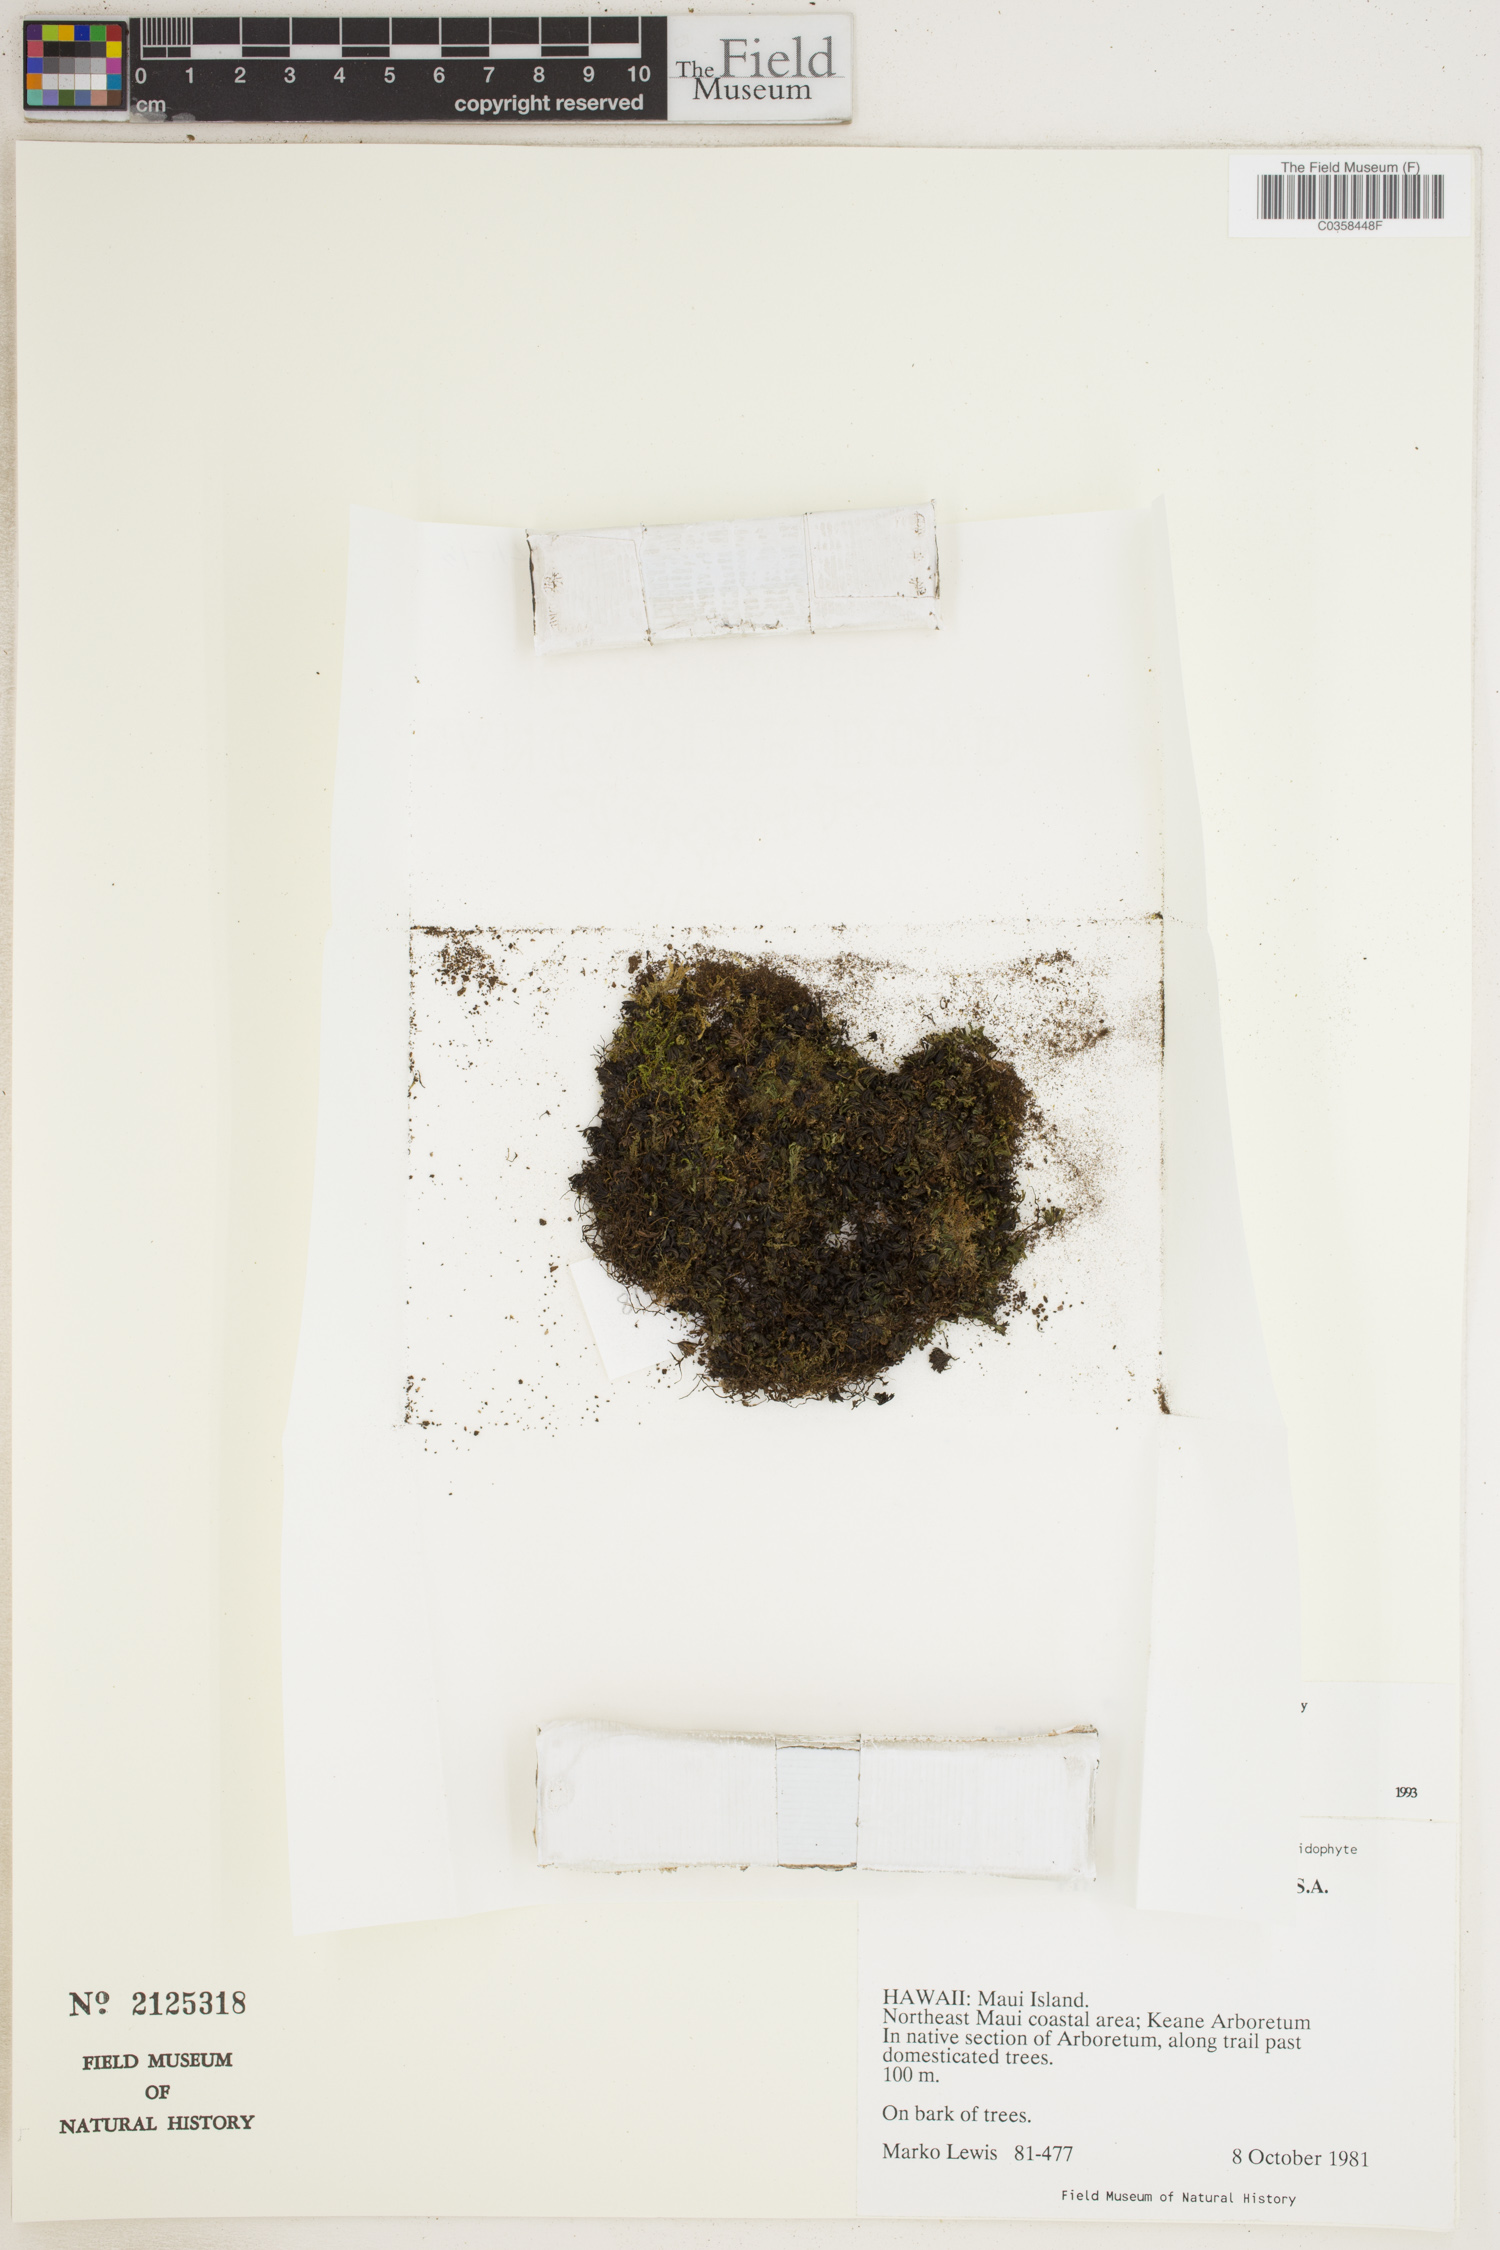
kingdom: Plantae
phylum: Tracheophyta
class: Polypodiopsida
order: Hymenophyllales
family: Hymenophyllaceae
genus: Trichomanes
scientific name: Trichomanes
